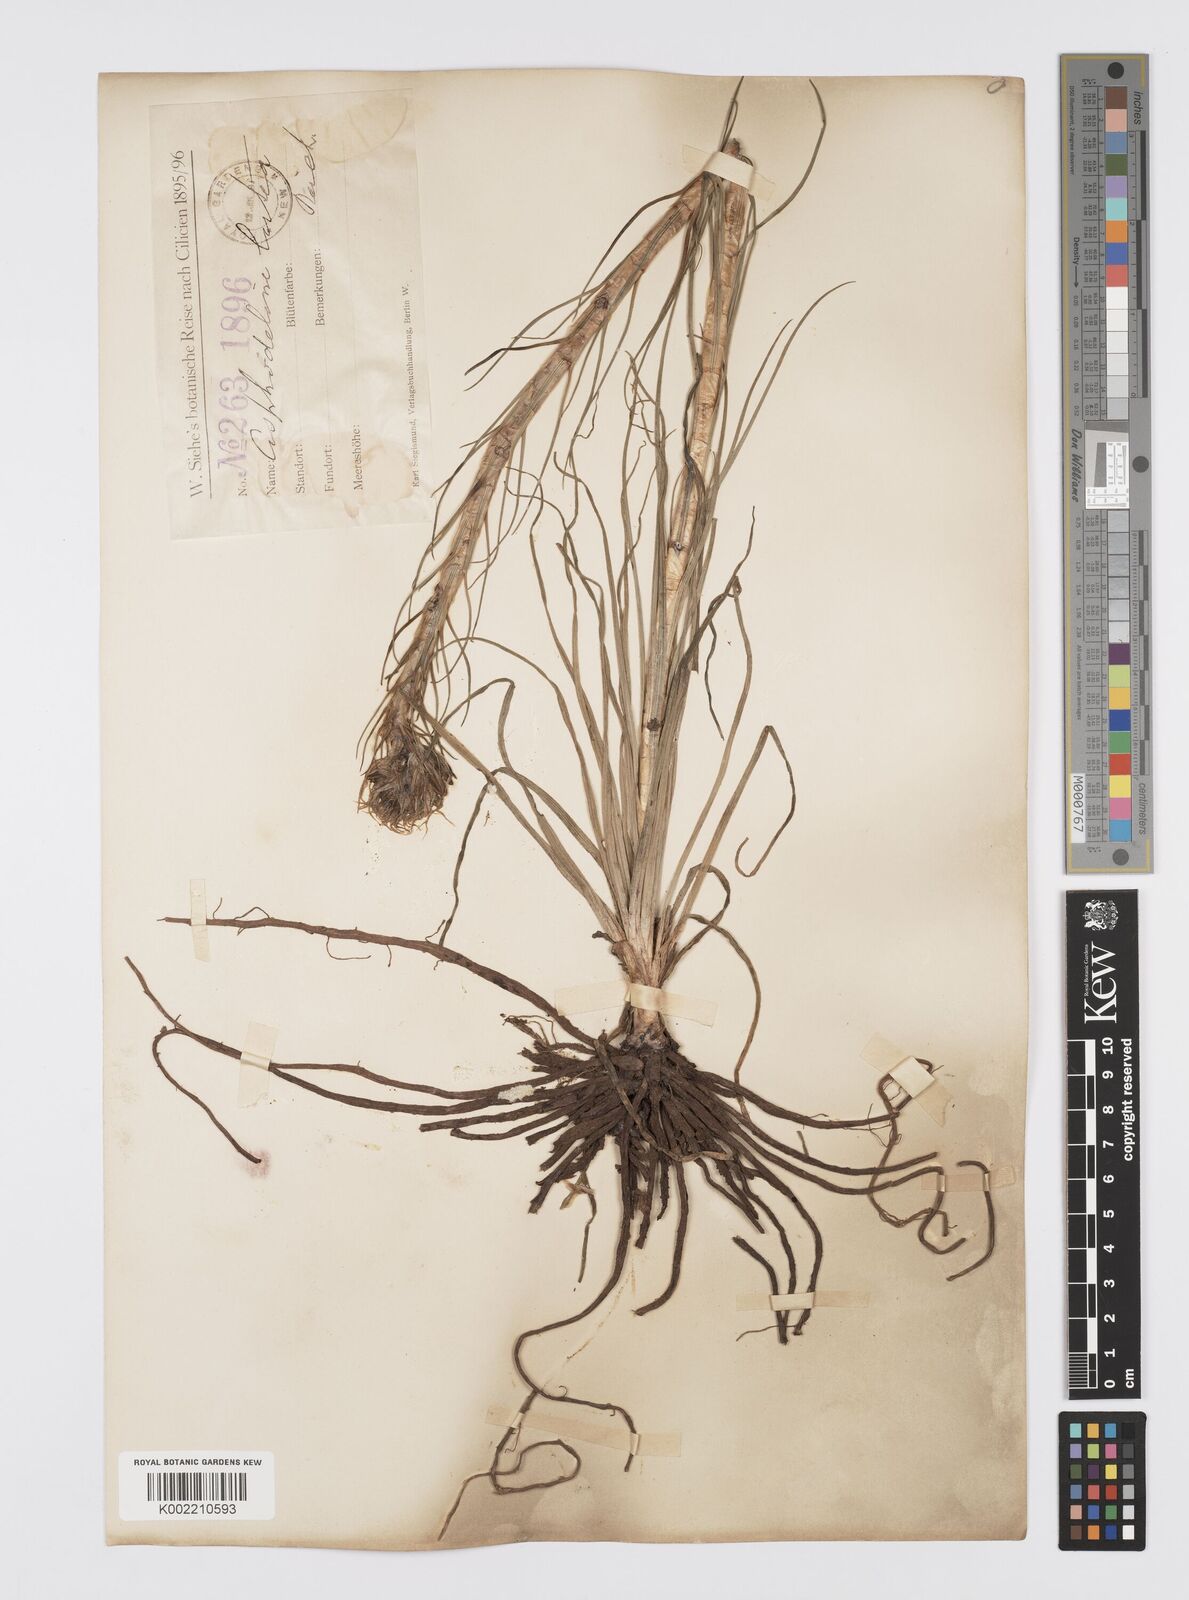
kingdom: Plantae
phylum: Tracheophyta
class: Liliopsida
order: Asparagales
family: Asphodelaceae
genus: Asphodeline
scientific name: Asphodeline lutea
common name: Yellow asphodel
